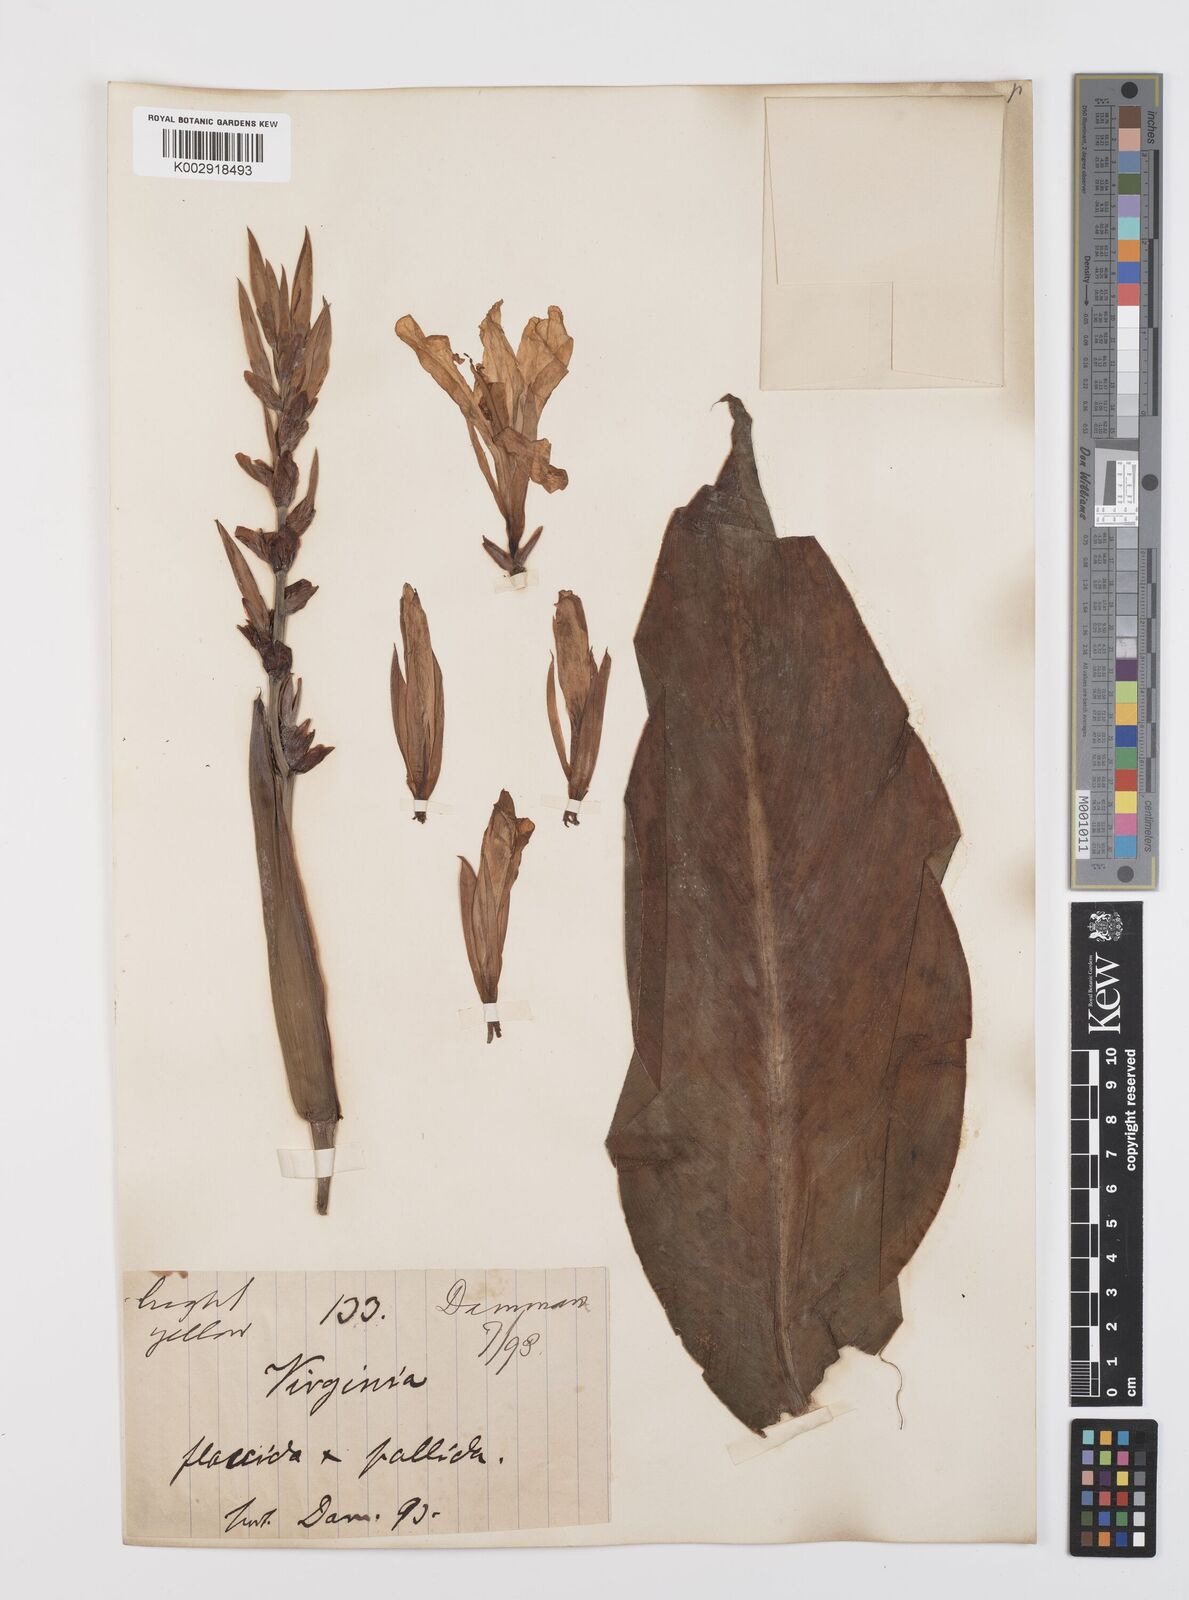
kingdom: Plantae
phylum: Tracheophyta
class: Liliopsida
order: Zingiberales
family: Cannaceae
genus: Canna
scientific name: Canna
